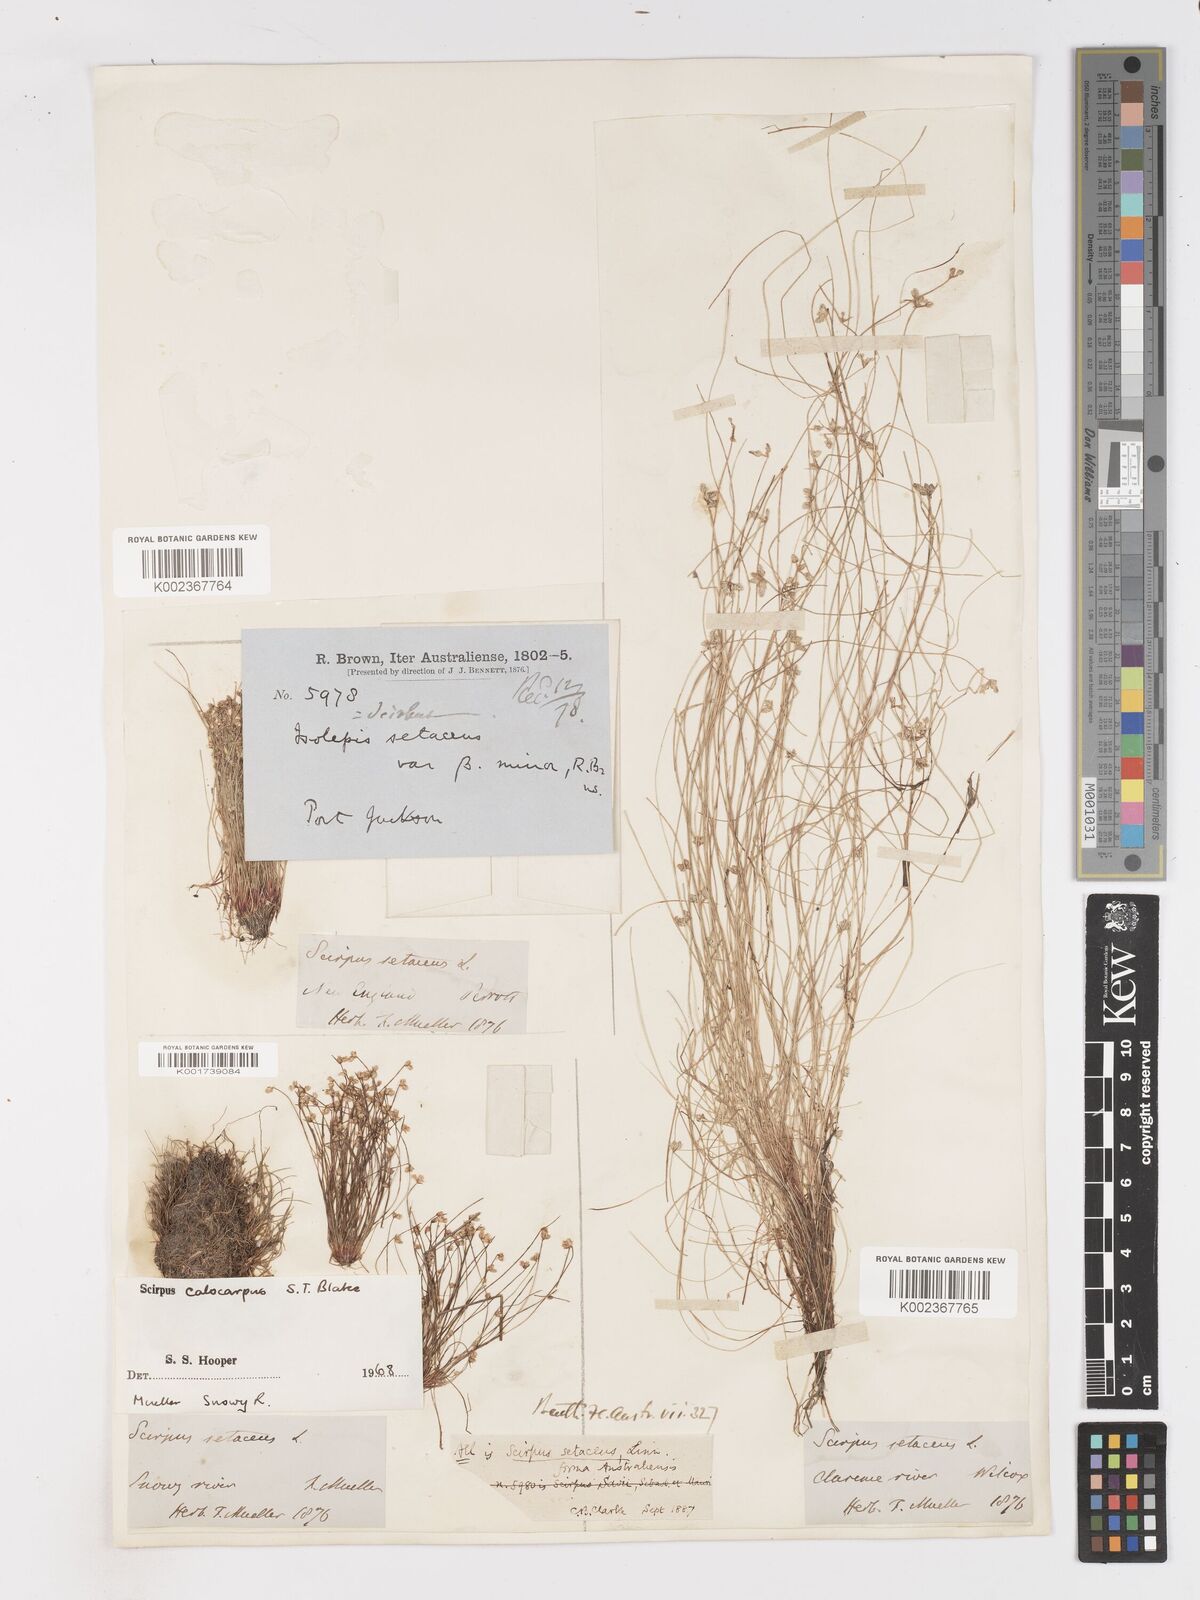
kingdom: Plantae
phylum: Tracheophyta
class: Liliopsida
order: Poales
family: Cyperaceae
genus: Isolepis
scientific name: Isolepis multicaulis
